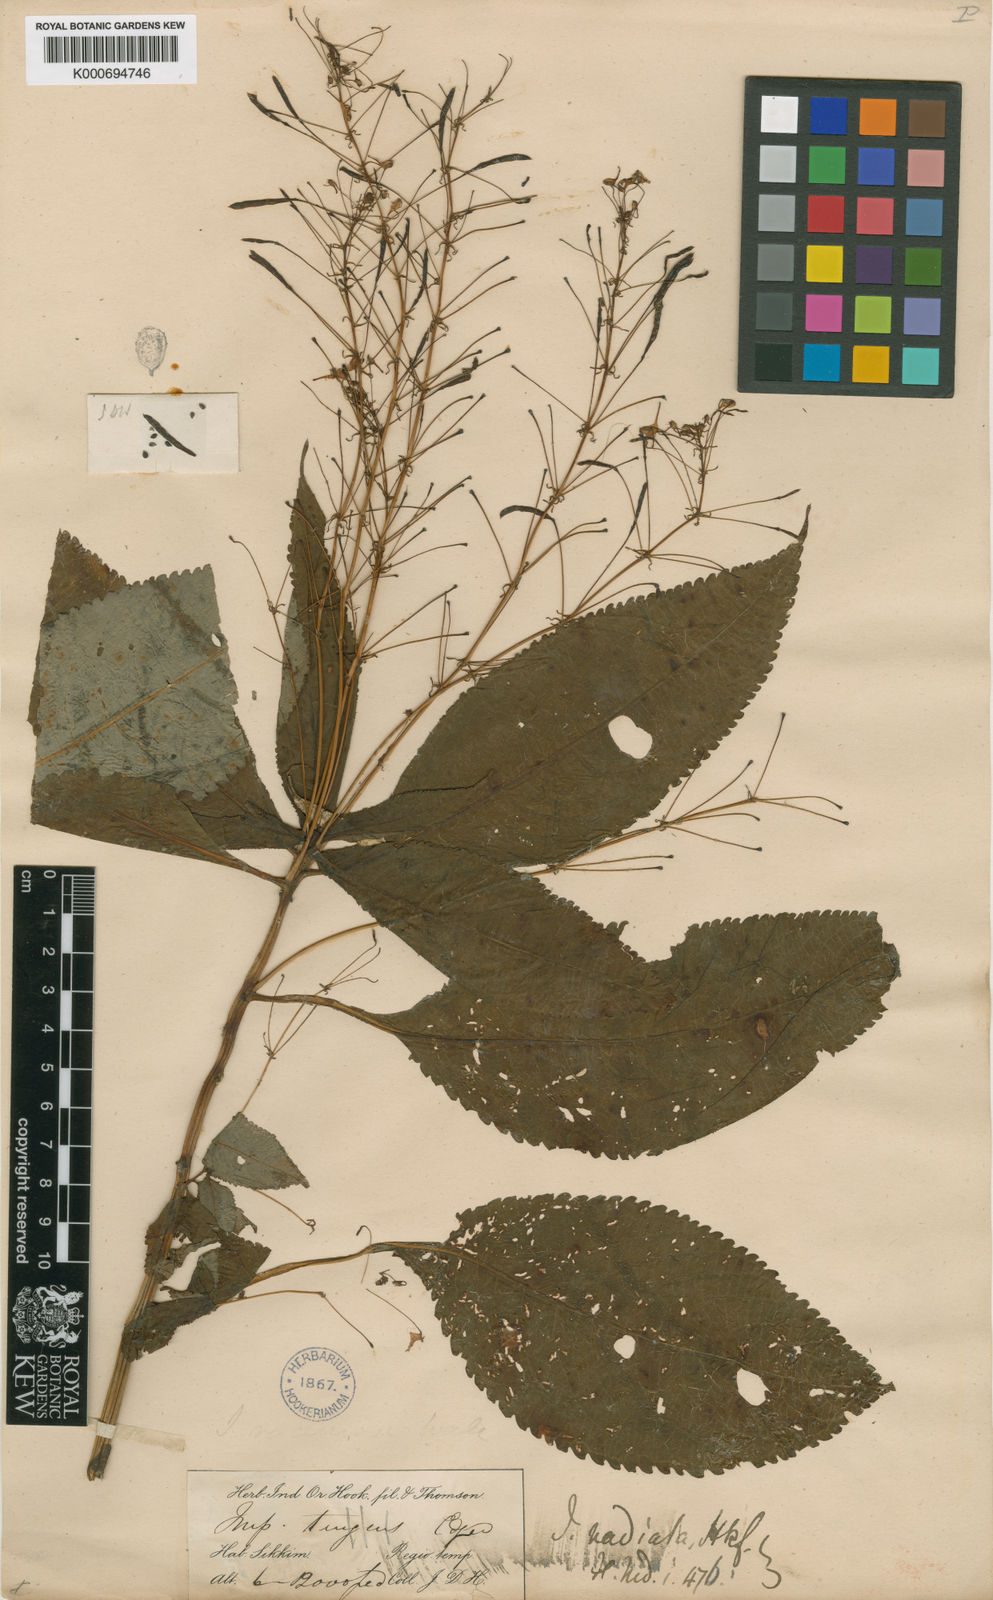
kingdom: Plantae
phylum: Tracheophyta
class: Magnoliopsida
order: Ericales
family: Balsaminaceae
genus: Impatiens
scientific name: Impatiens radiata
